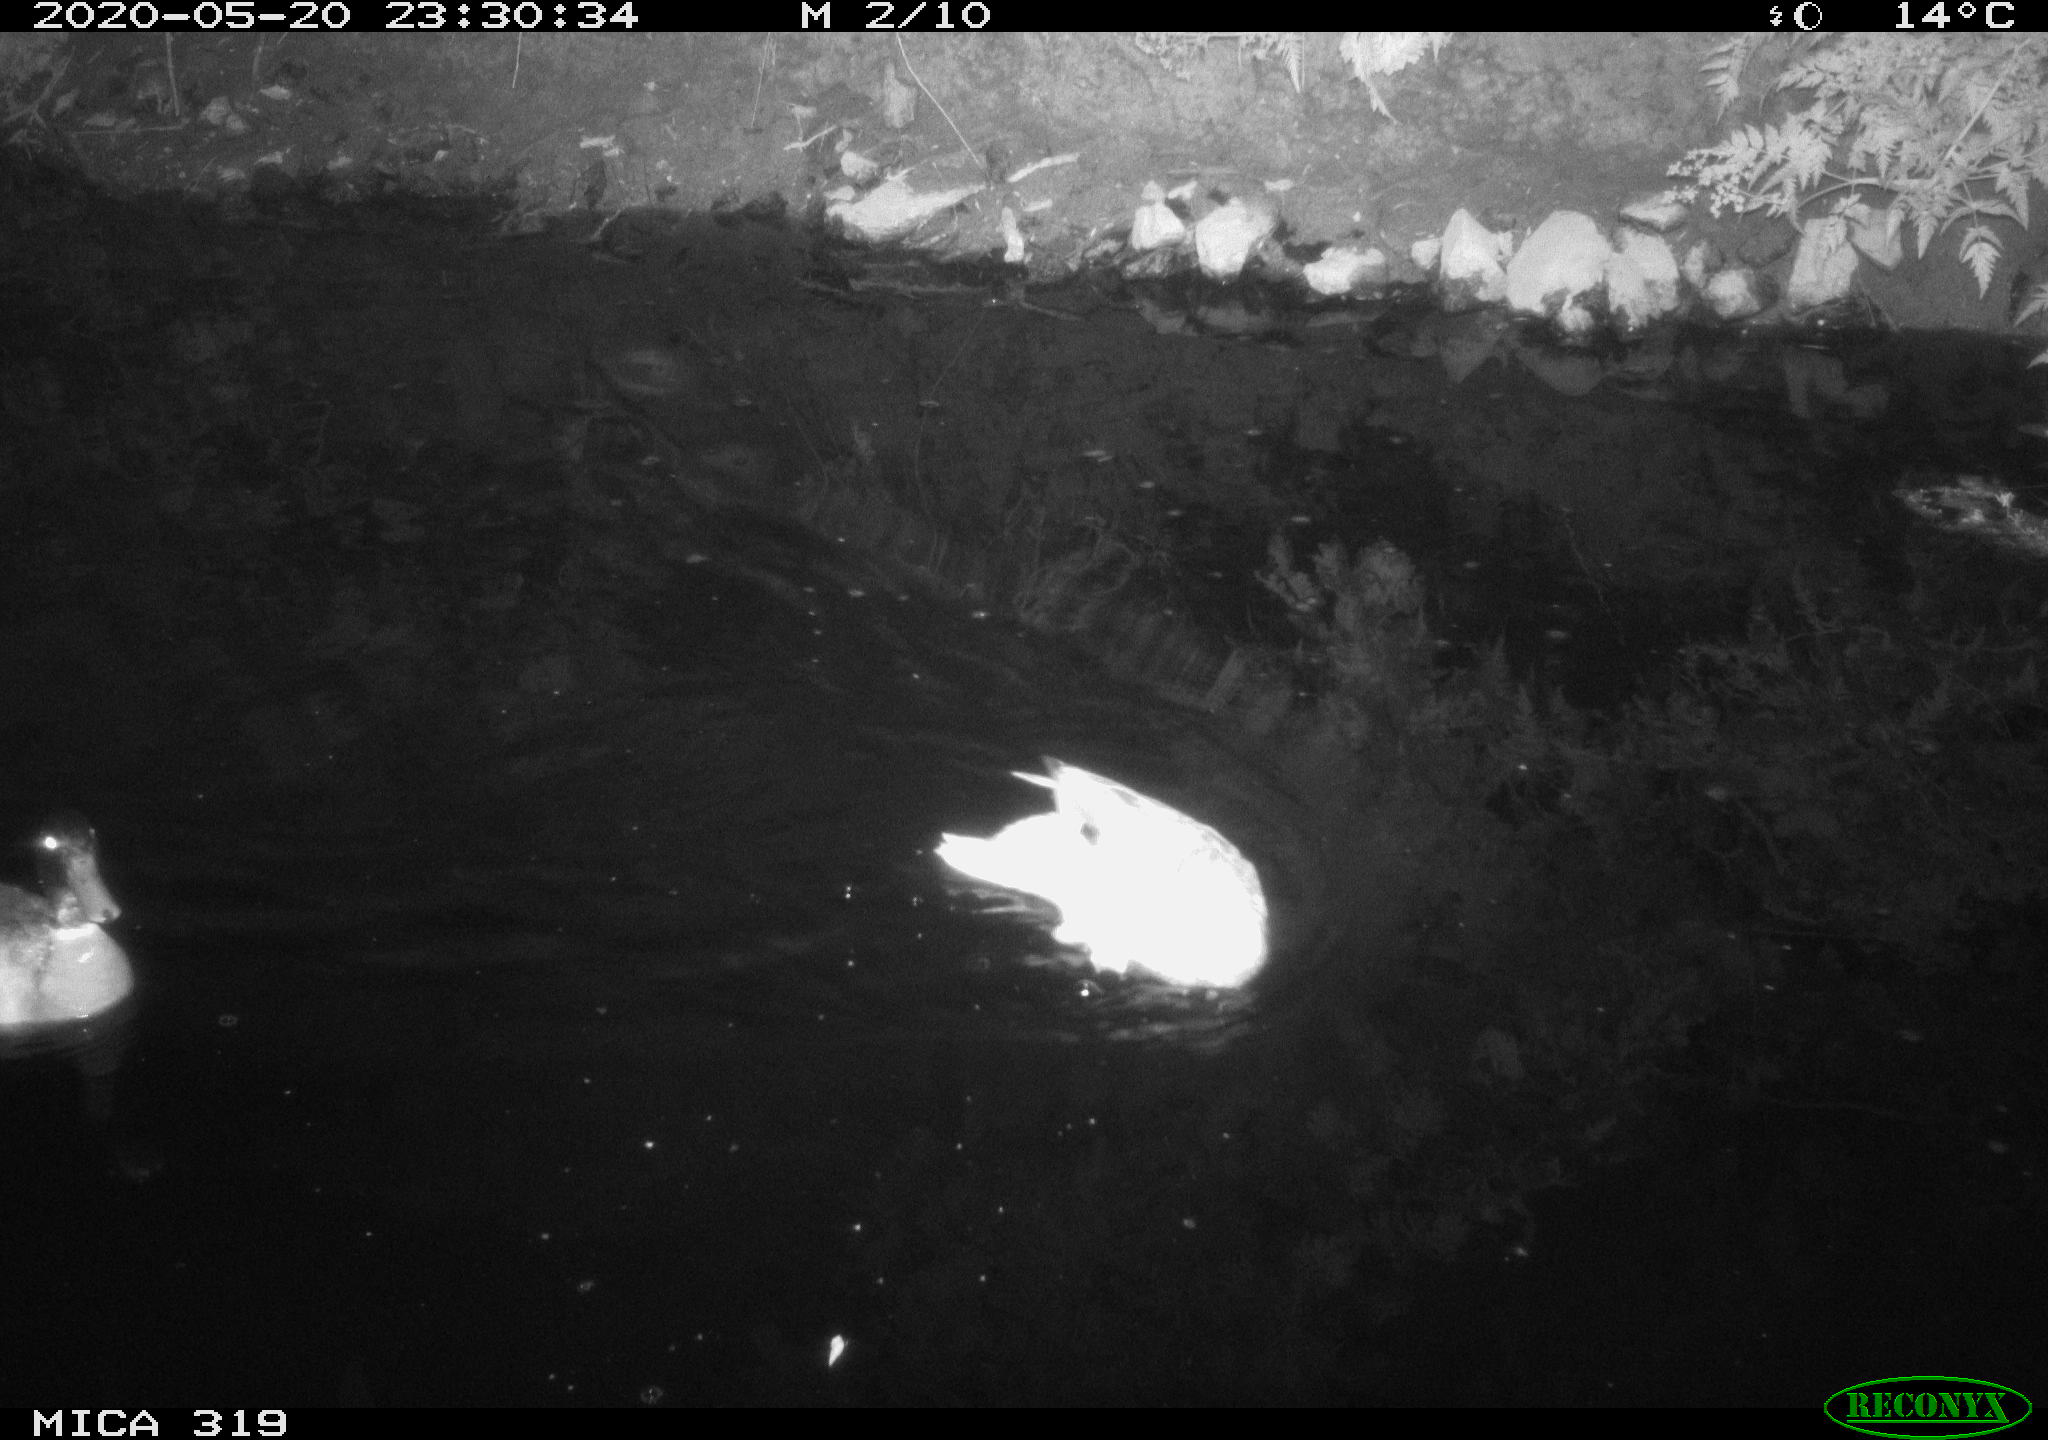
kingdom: Animalia
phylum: Chordata
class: Aves
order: Anseriformes
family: Anatidae
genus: Anas
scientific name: Anas platyrhynchos
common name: Mallard
